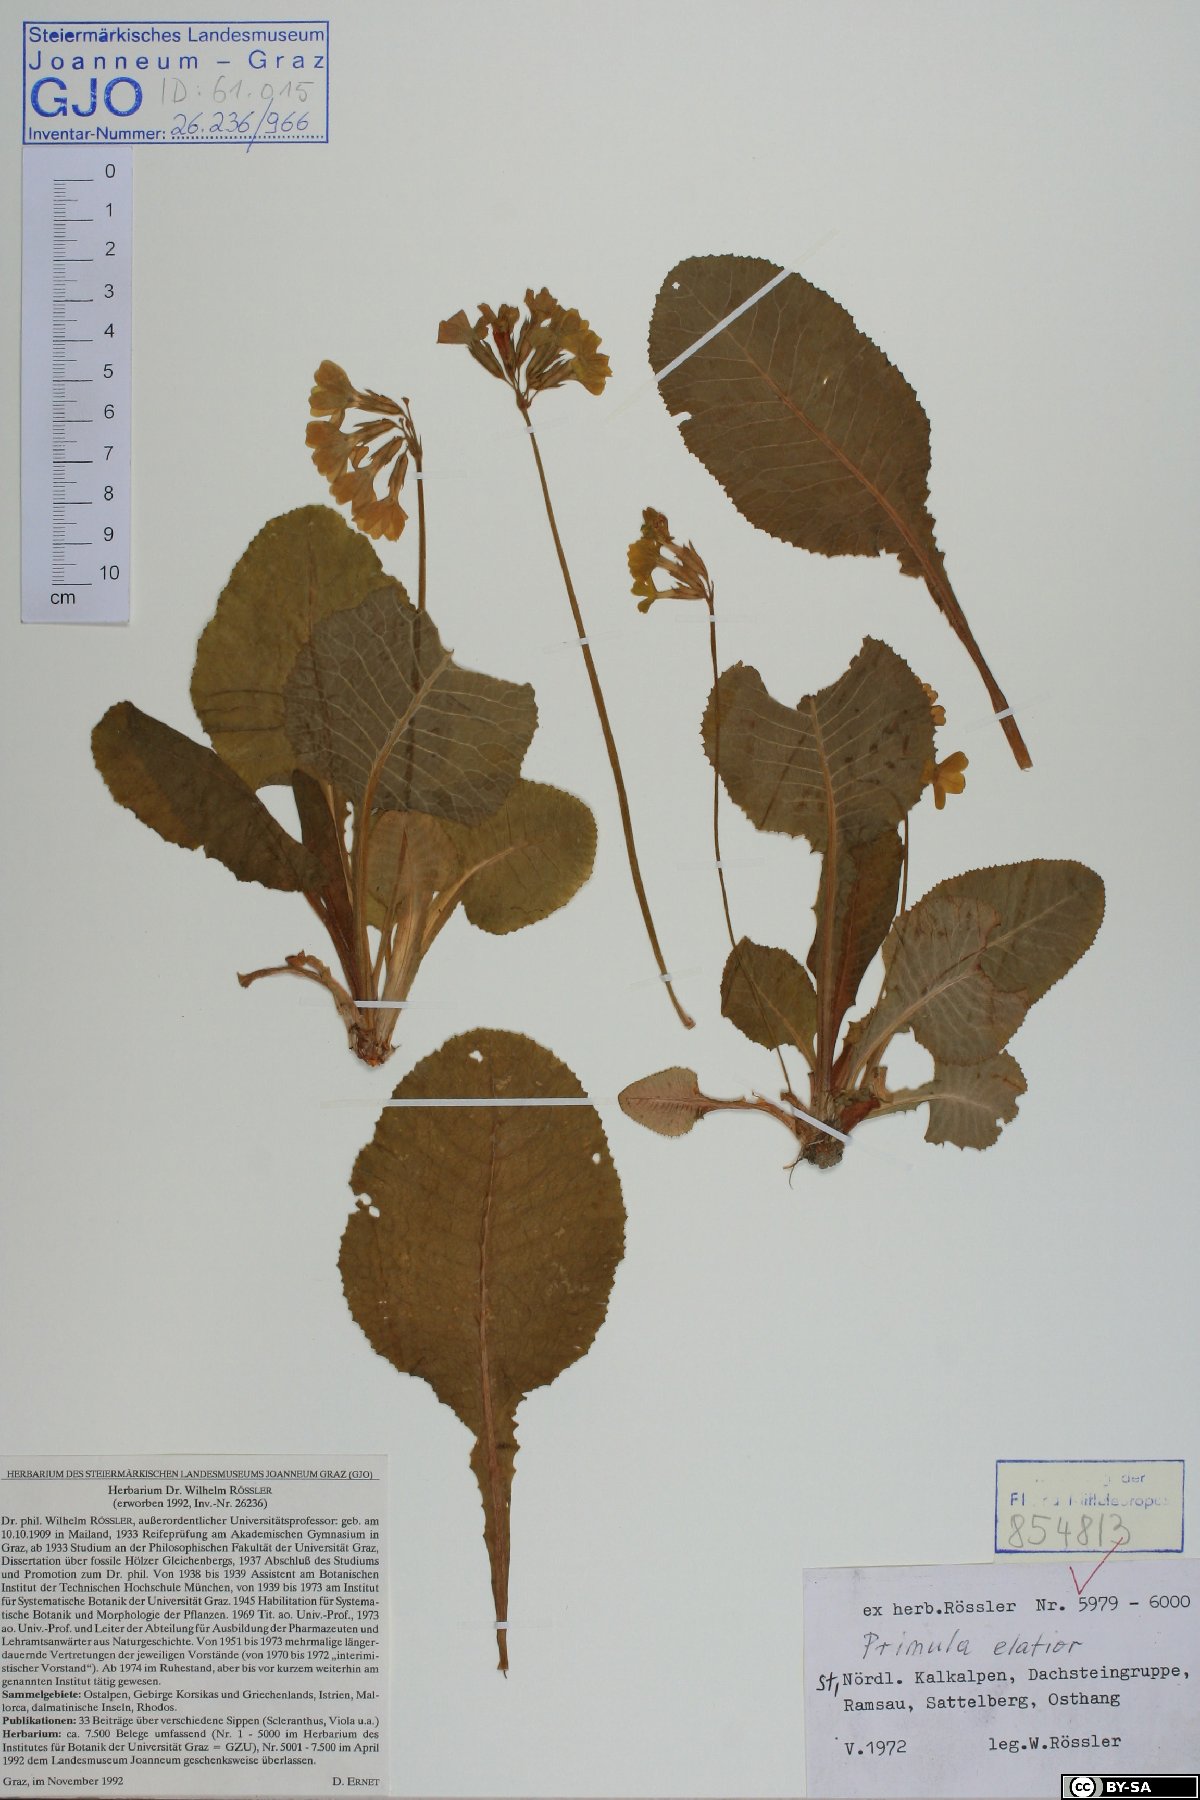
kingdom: Plantae
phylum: Tracheophyta
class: Magnoliopsida
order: Ericales
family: Primulaceae
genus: Primula
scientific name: Primula elatior
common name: Oxlip
